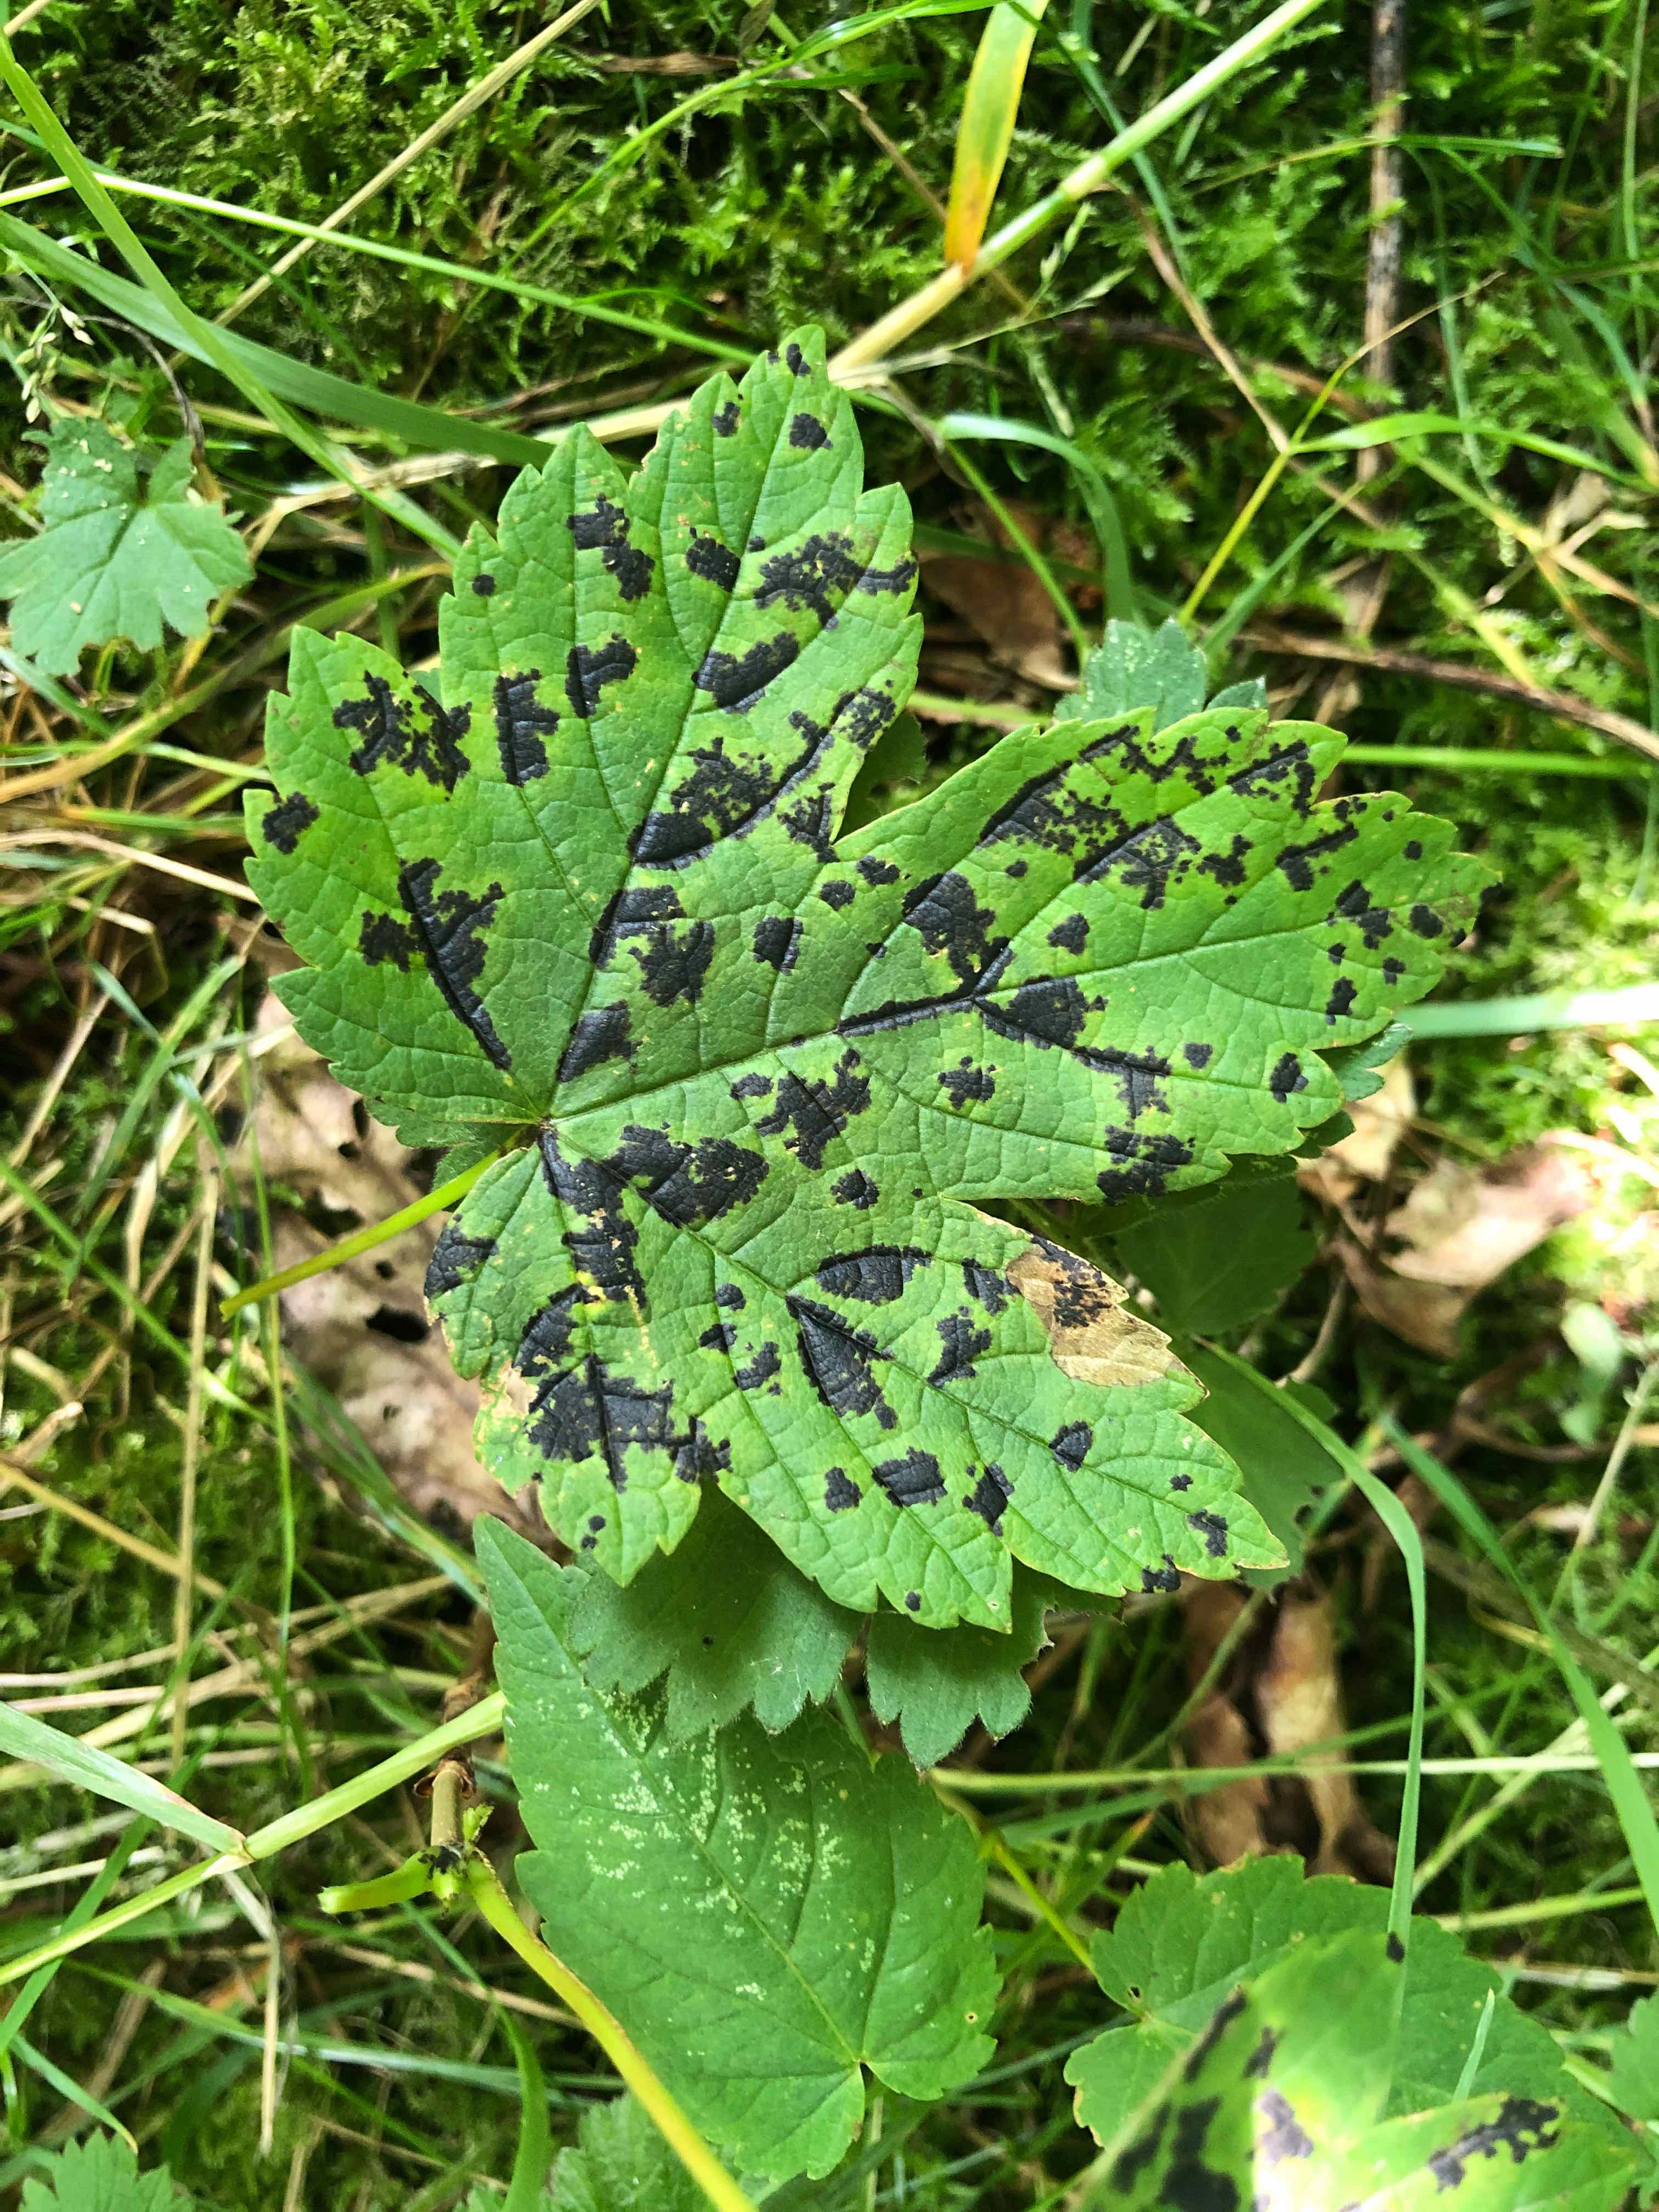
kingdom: Fungi
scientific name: Fungi
